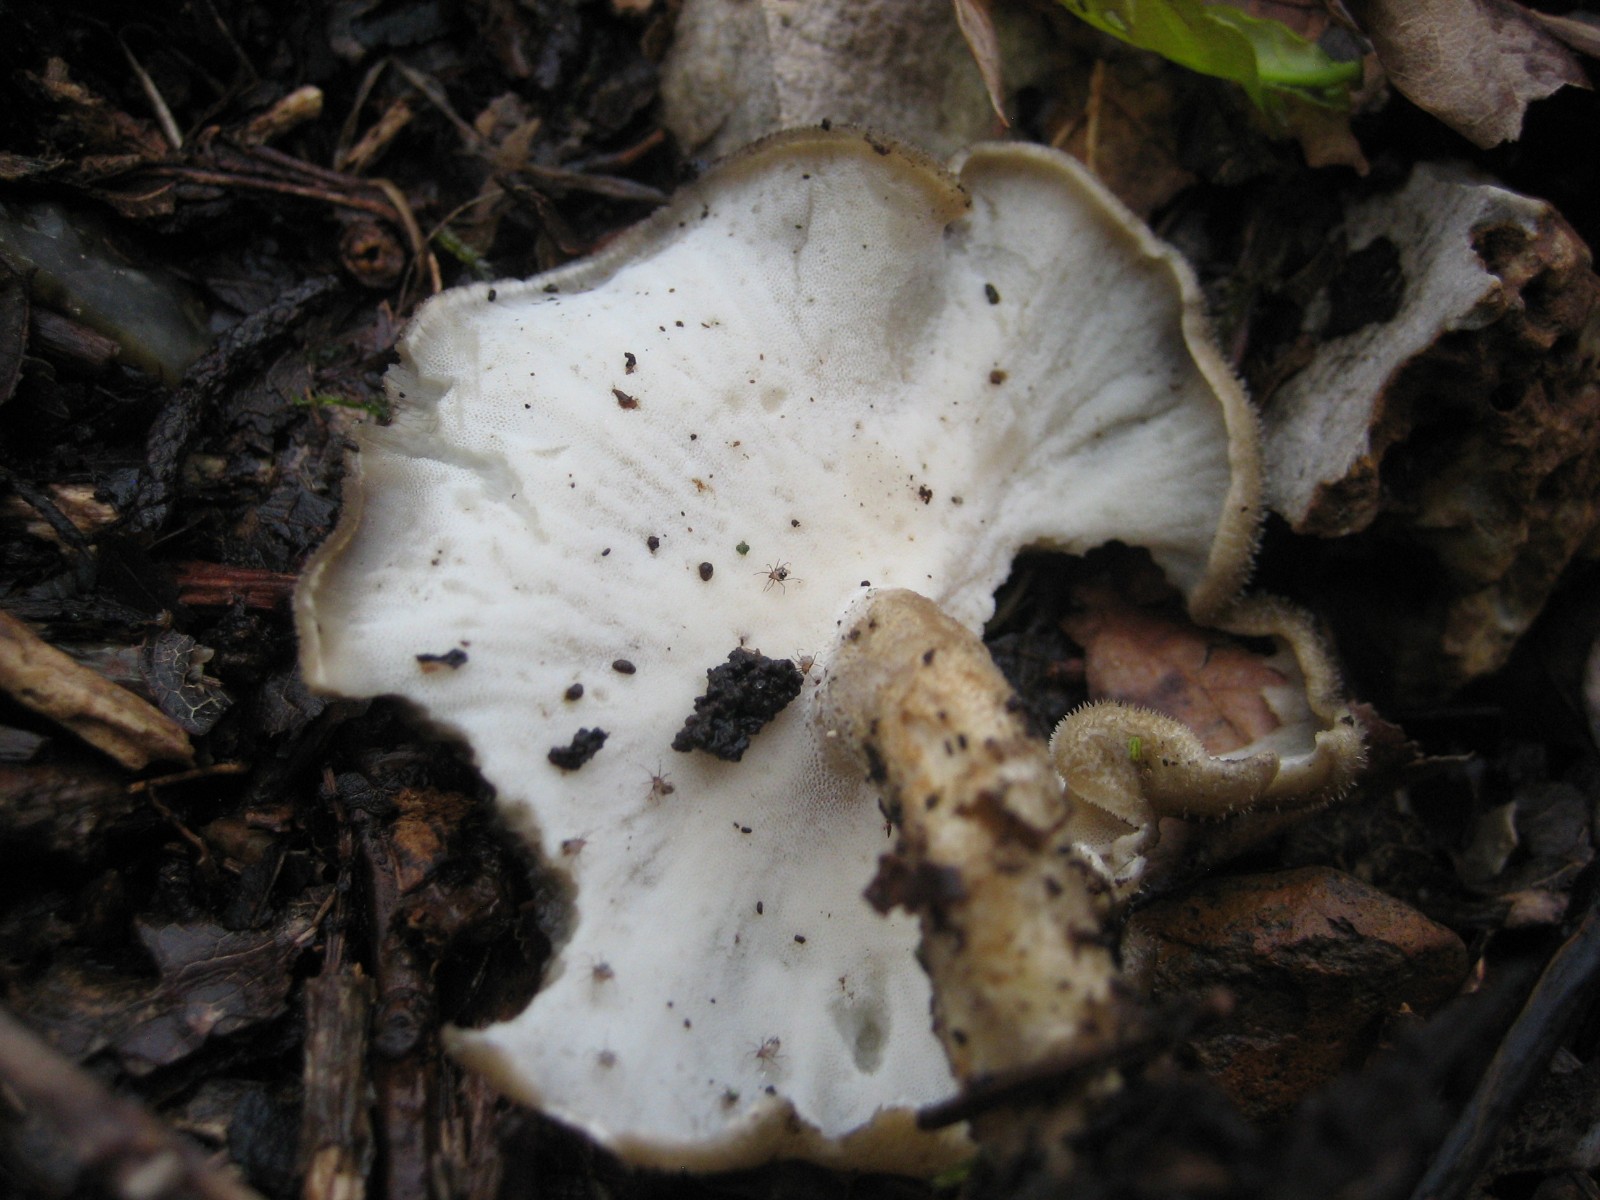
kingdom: Fungi
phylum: Basidiomycota
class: Agaricomycetes
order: Polyporales
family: Polyporaceae
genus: Lentinus
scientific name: Lentinus substrictus
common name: forårs-stilkporesvamp
